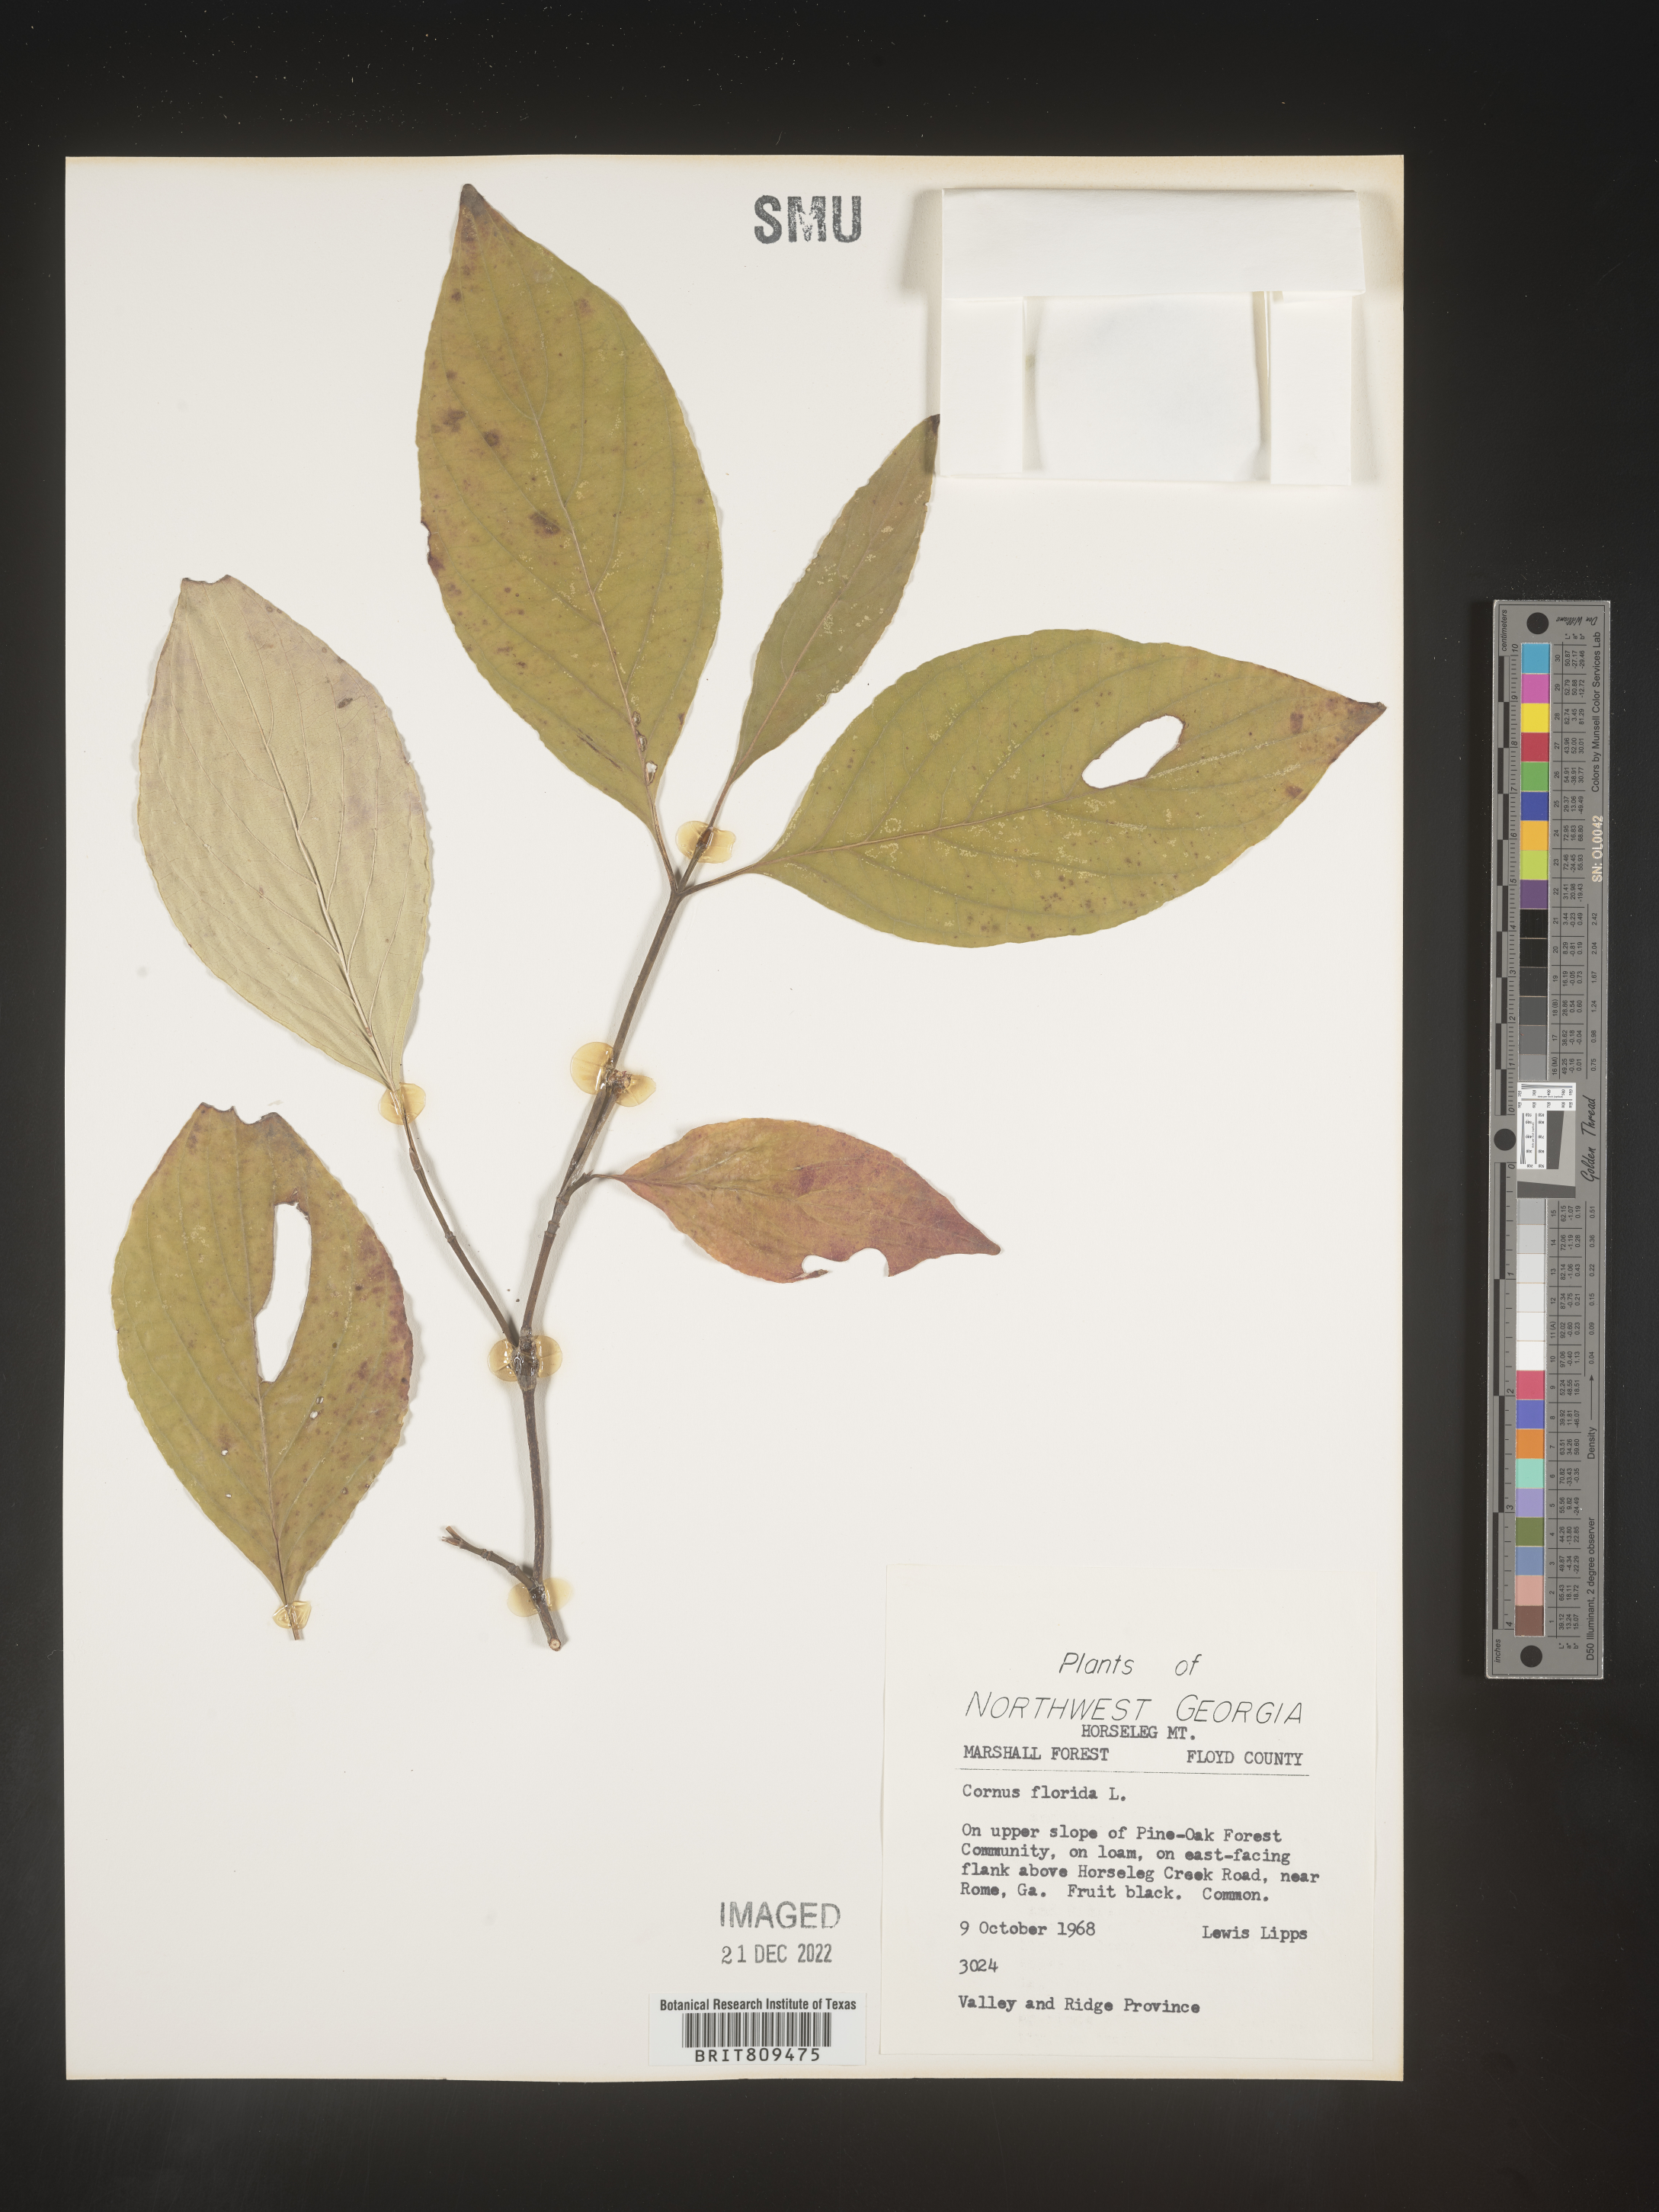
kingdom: Plantae
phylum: Tracheophyta
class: Magnoliopsida
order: Cornales
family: Cornaceae
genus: Cornus
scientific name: Cornus florida
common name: Flowering dogwood
